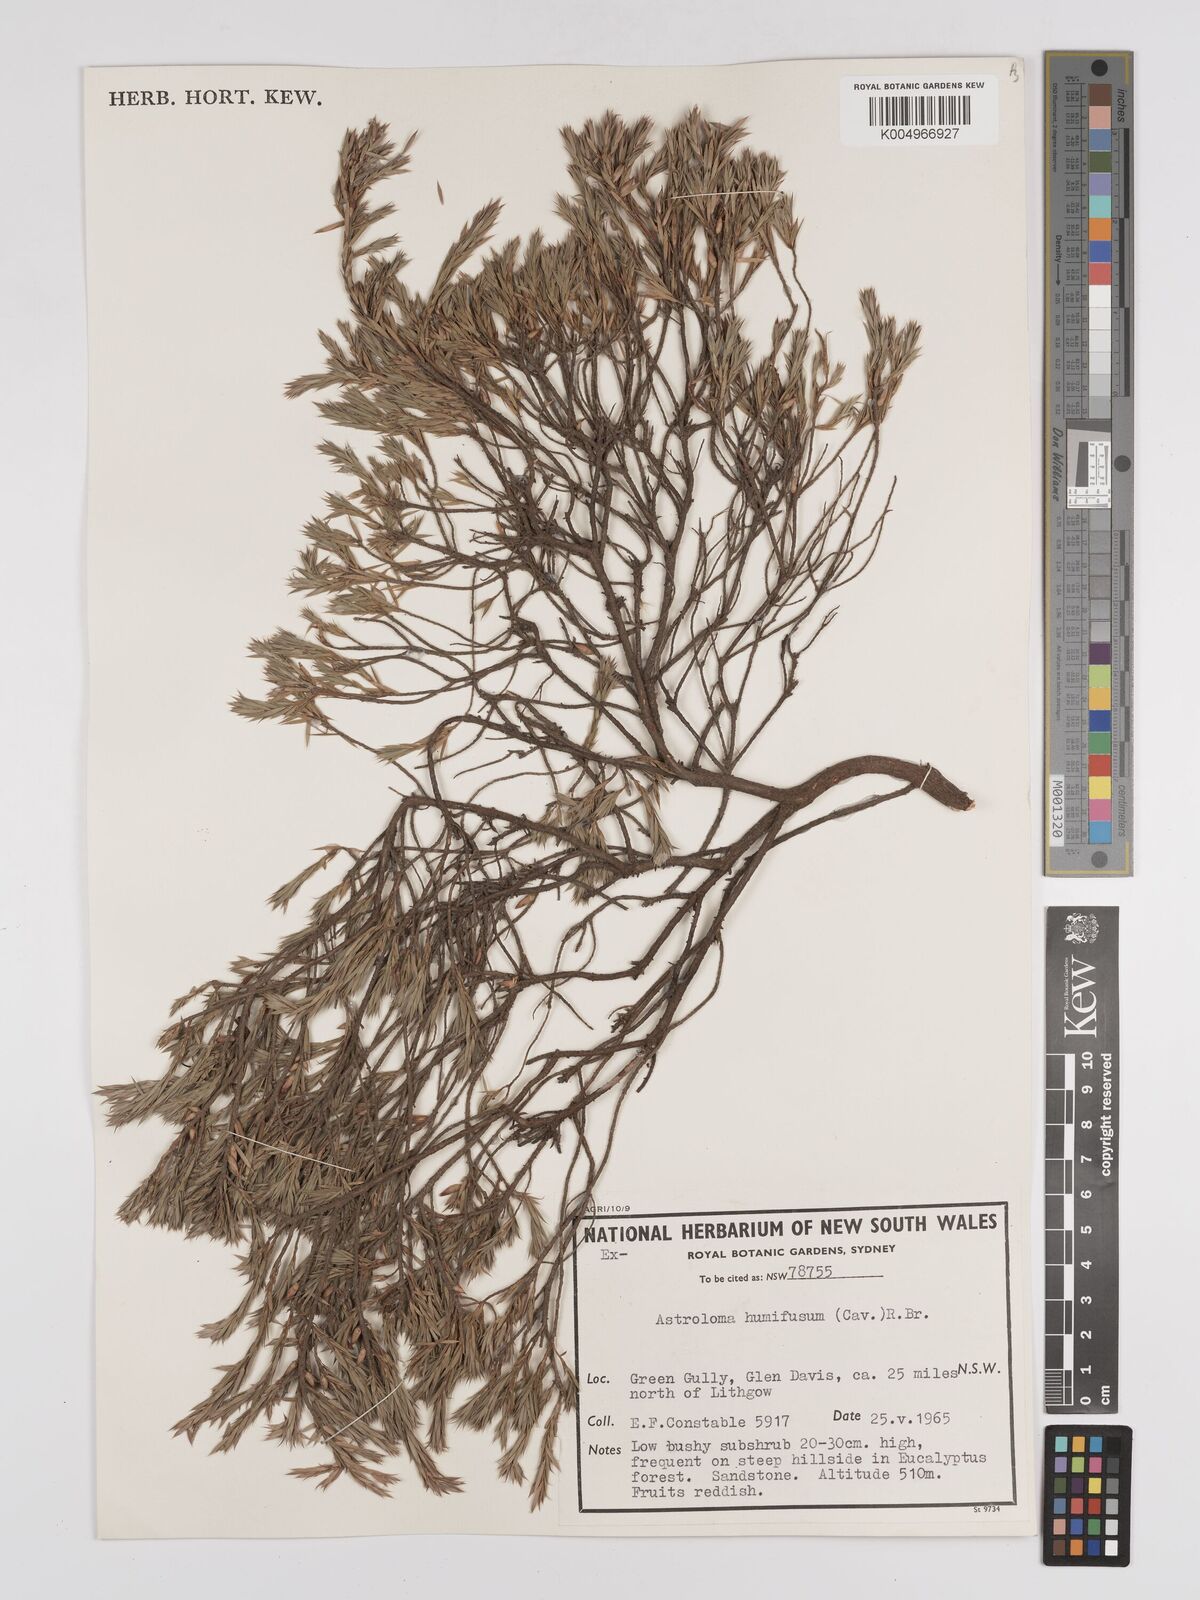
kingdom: Plantae
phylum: Tracheophyta
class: Magnoliopsida
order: Ericales
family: Ericaceae
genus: Styphelia
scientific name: Styphelia humifusa
